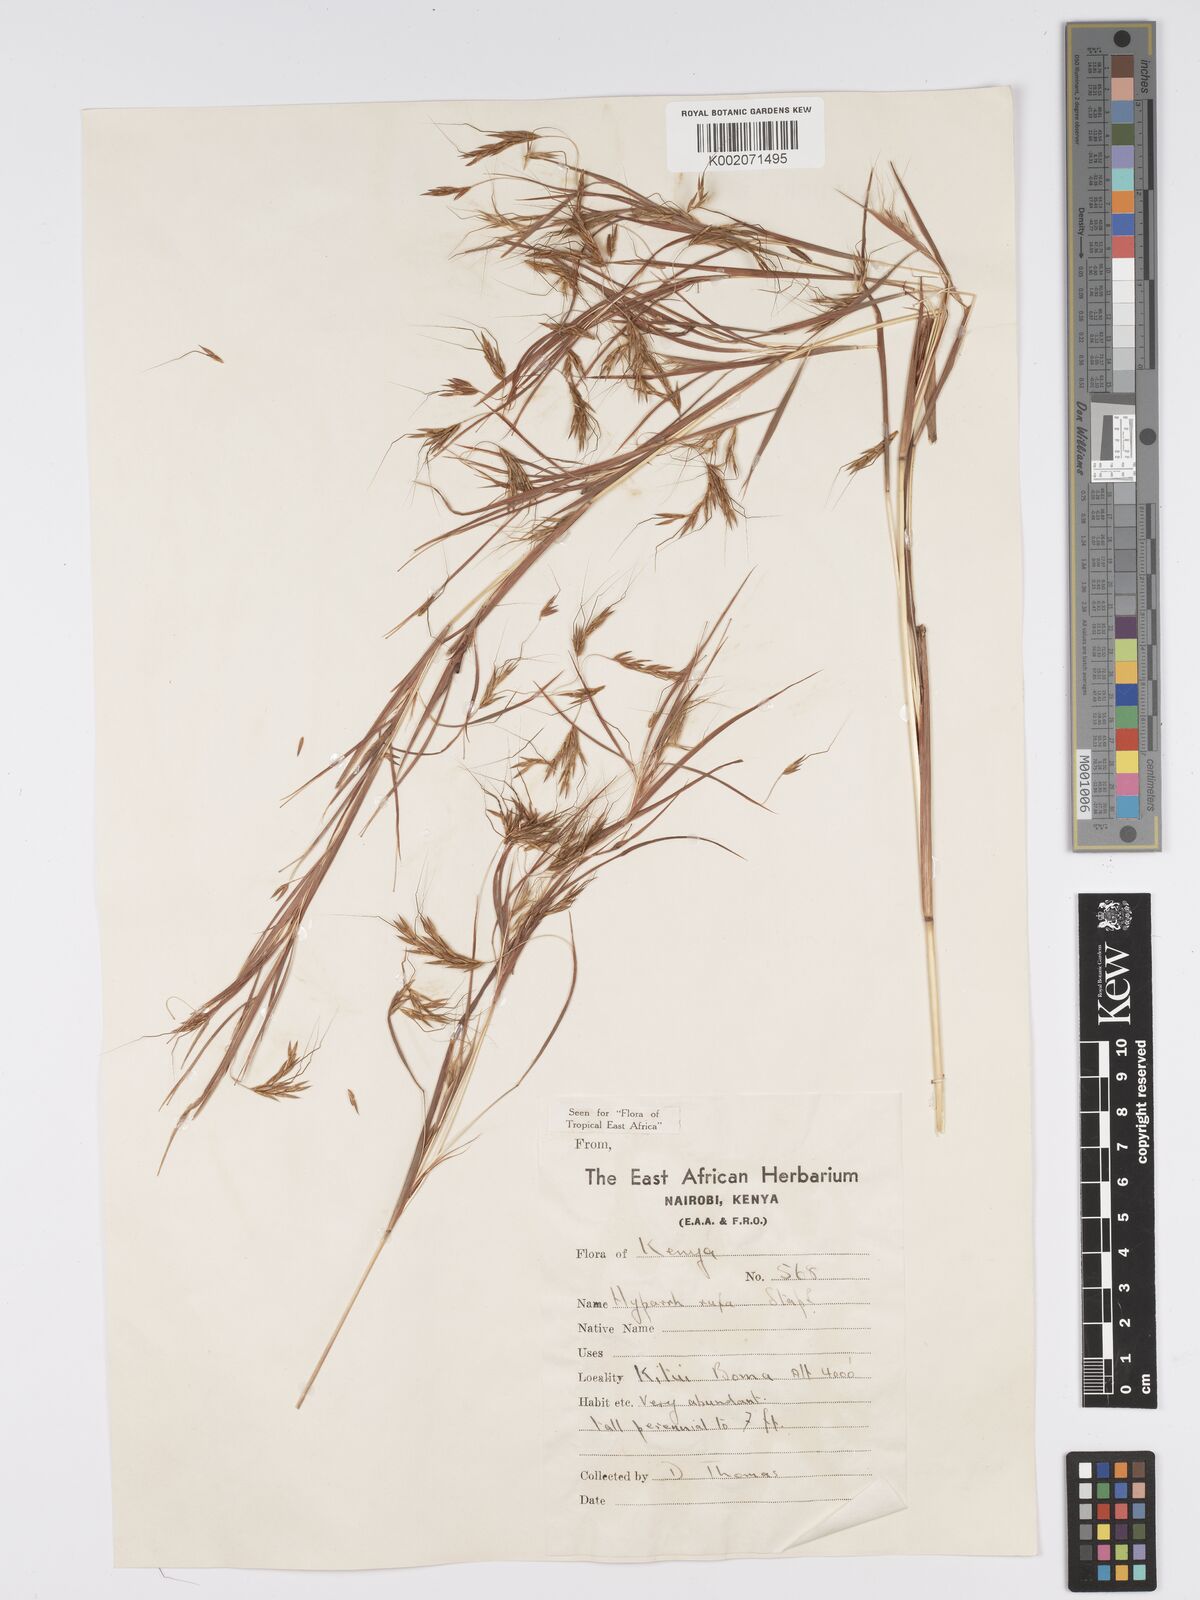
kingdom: Plantae
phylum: Tracheophyta
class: Liliopsida
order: Poales
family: Poaceae
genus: Hyparrhenia
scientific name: Hyparrhenia rufa
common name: Jaraguagrass
